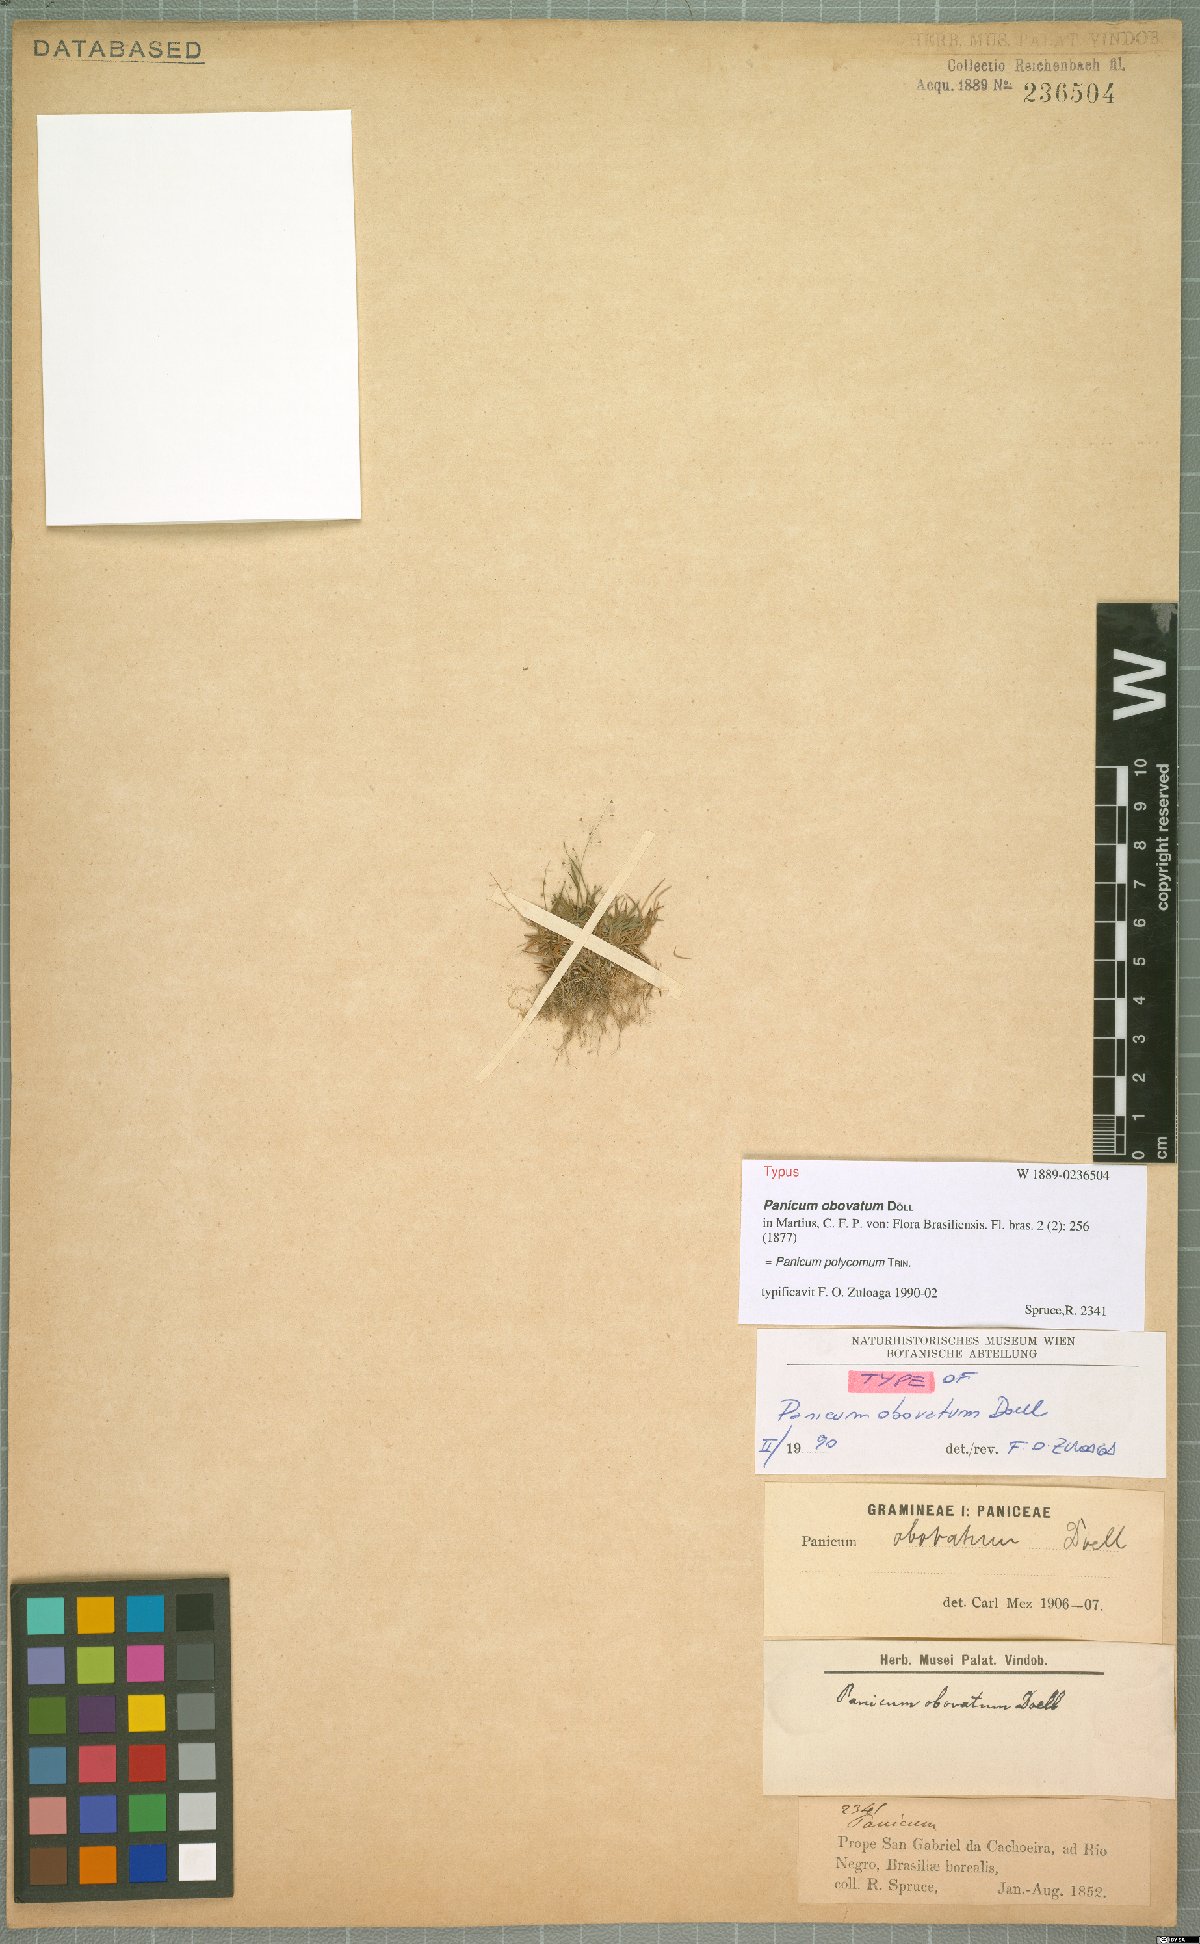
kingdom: Plantae
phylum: Tracheophyta
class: Liliopsida
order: Poales
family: Poaceae
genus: Trichanthecium
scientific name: Trichanthecium polycomum
